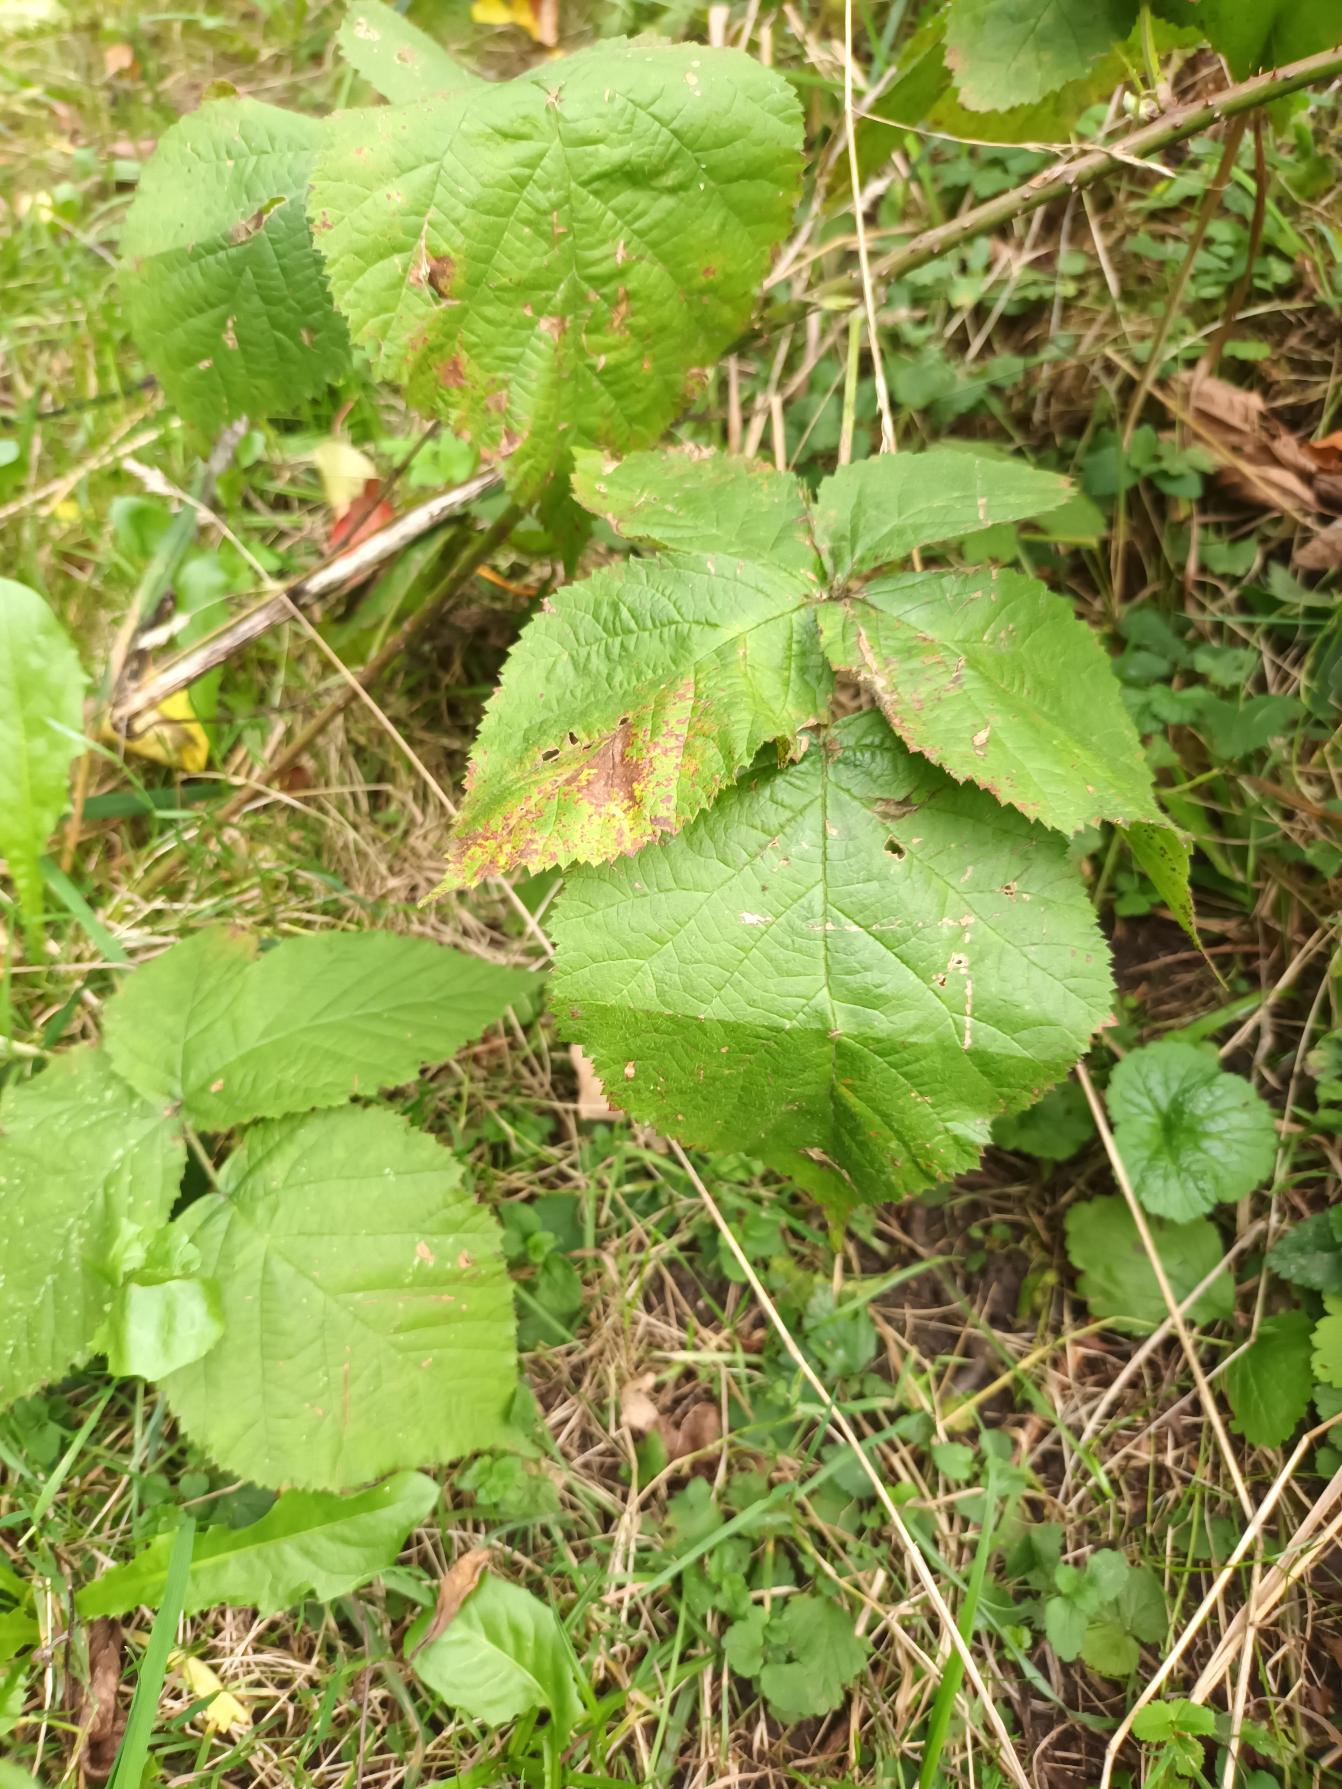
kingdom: Plantae
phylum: Tracheophyta
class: Magnoliopsida
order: Rosales
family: Rosaceae
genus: Rubus
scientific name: Rubus
